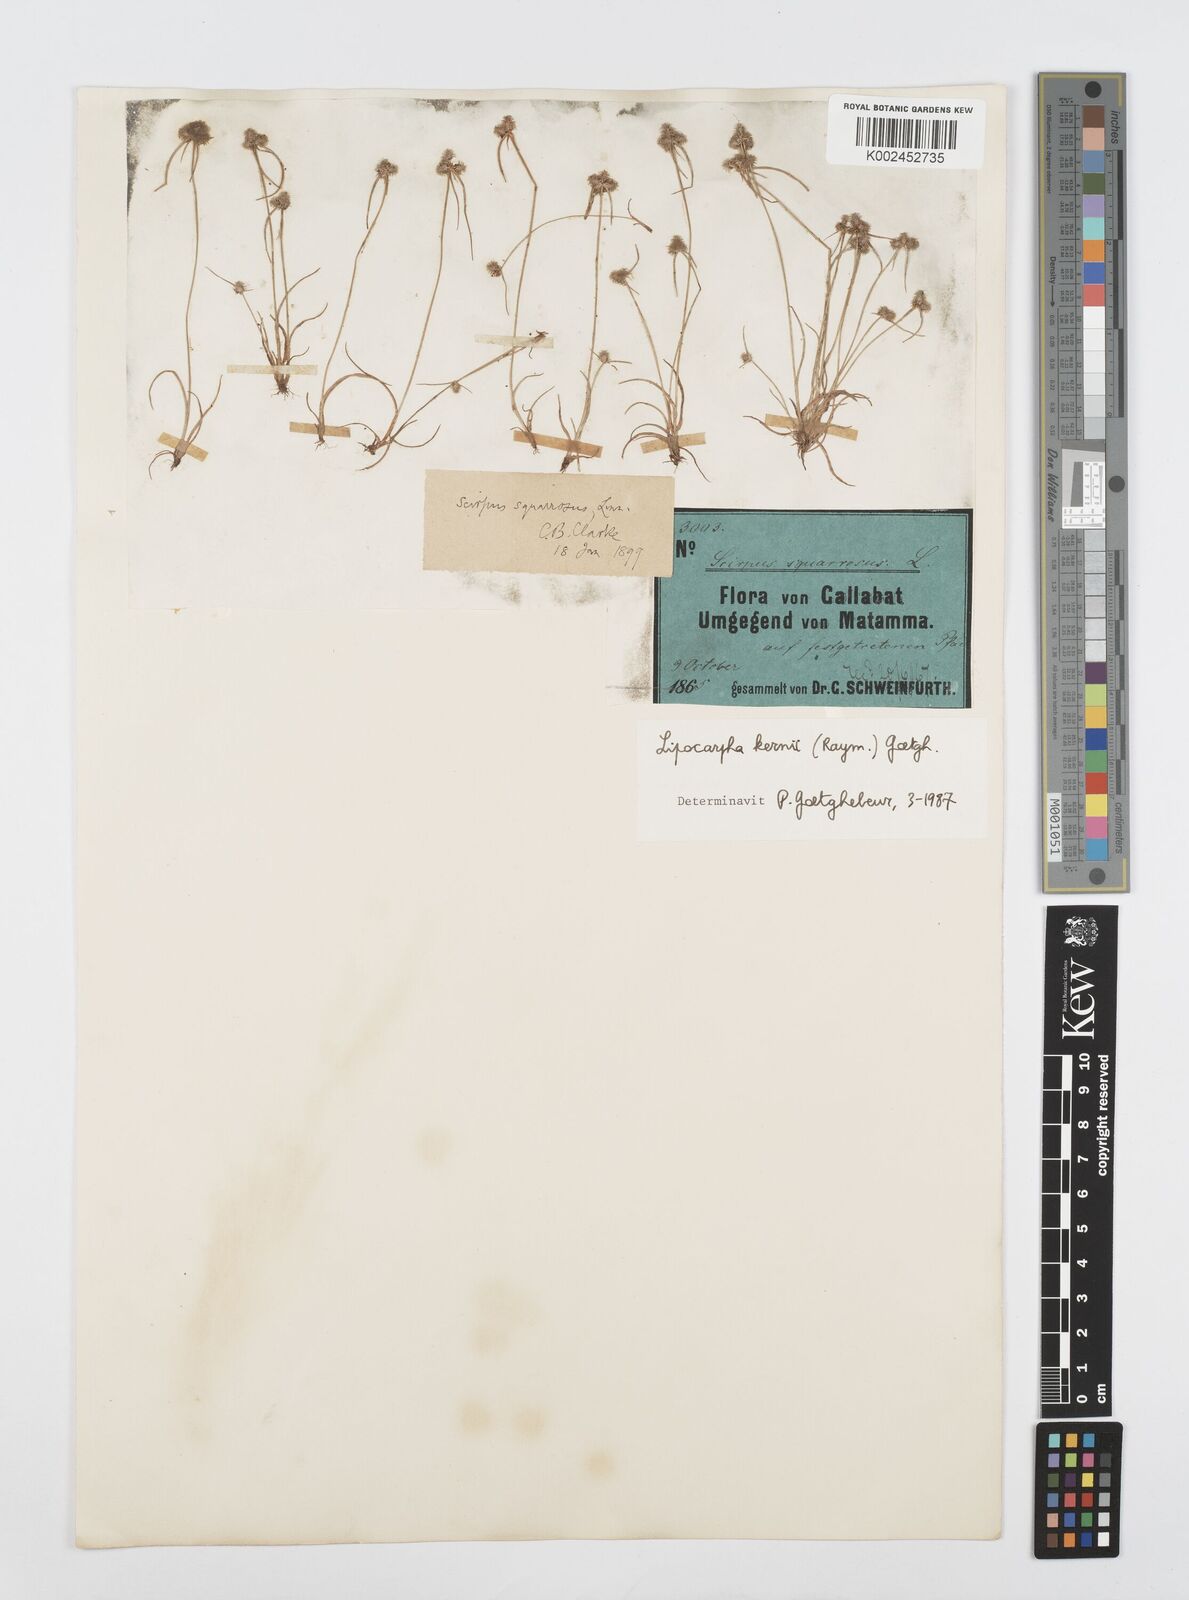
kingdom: Plantae
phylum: Tracheophyta
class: Liliopsida
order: Poales
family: Cyperaceae
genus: Cyperus
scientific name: Cyperus kernii
